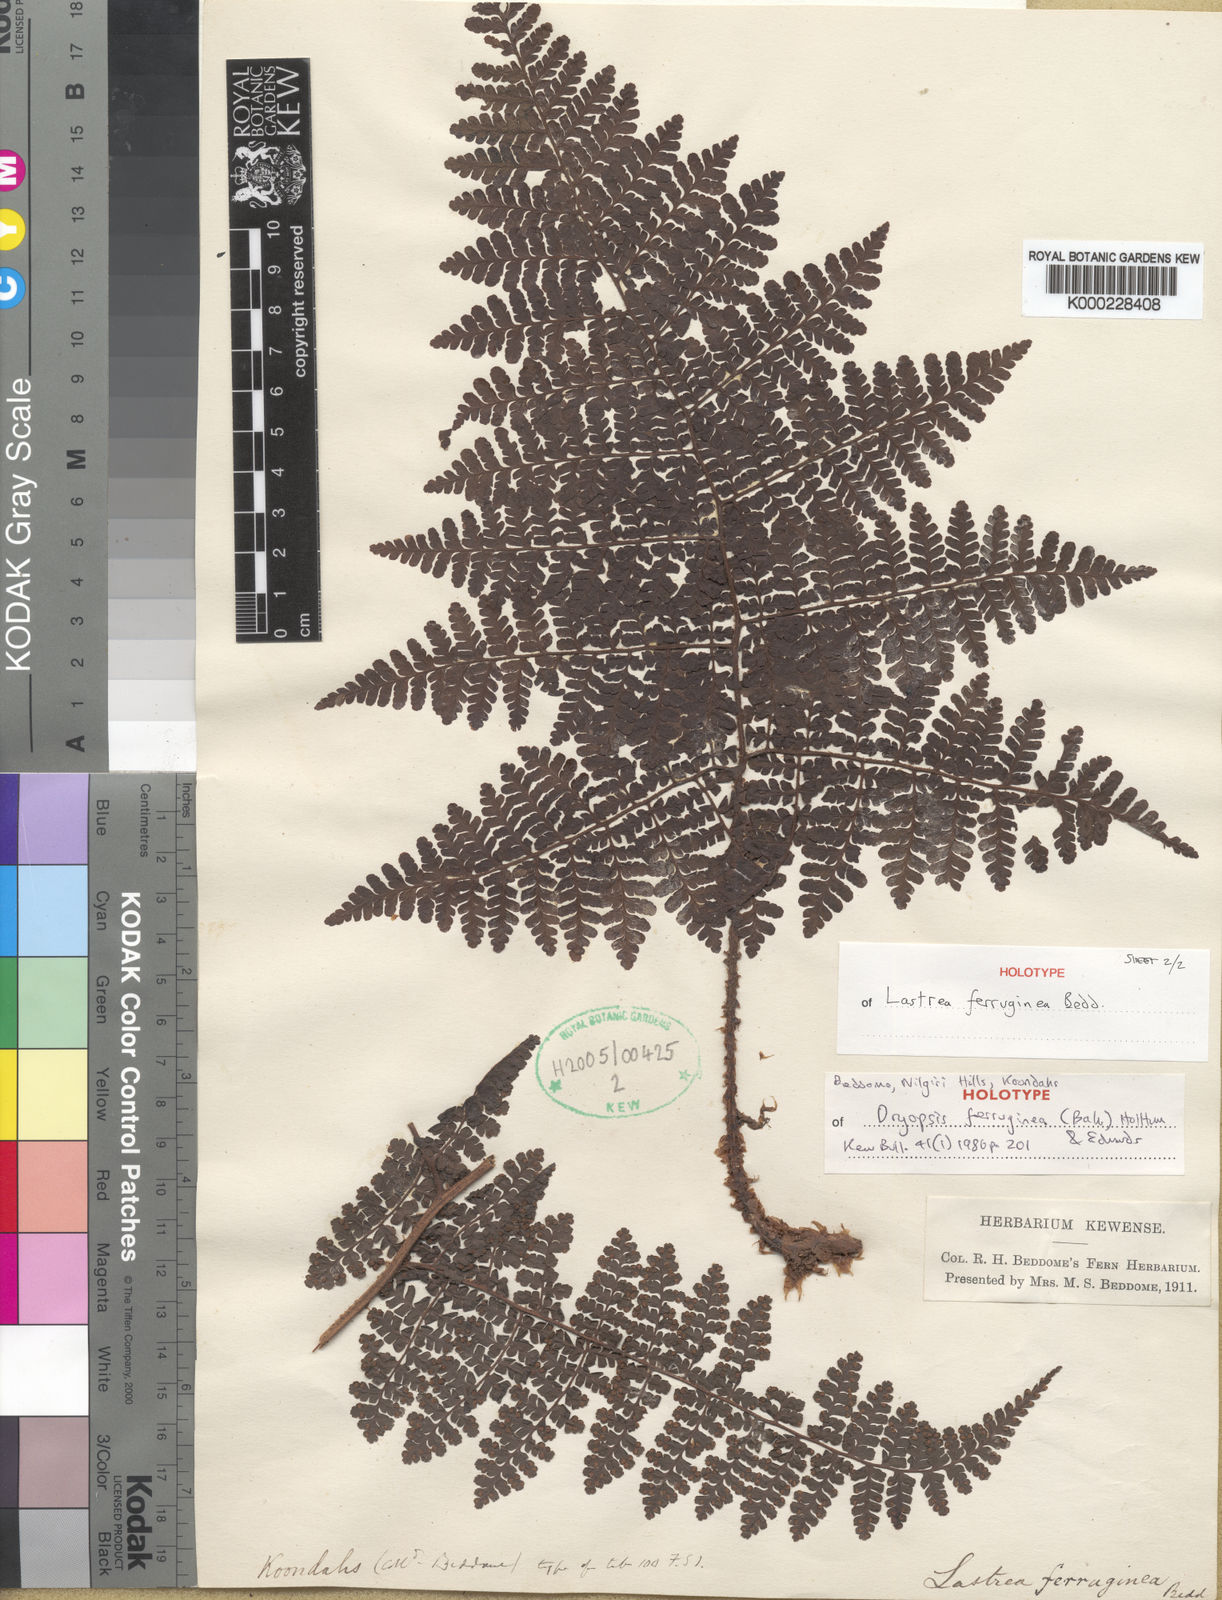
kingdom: Plantae
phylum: Tracheophyta
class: Polypodiopsida
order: Polypodiales
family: Dryopteridaceae
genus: Dryopteris
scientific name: Dryopteris peranemiformis
